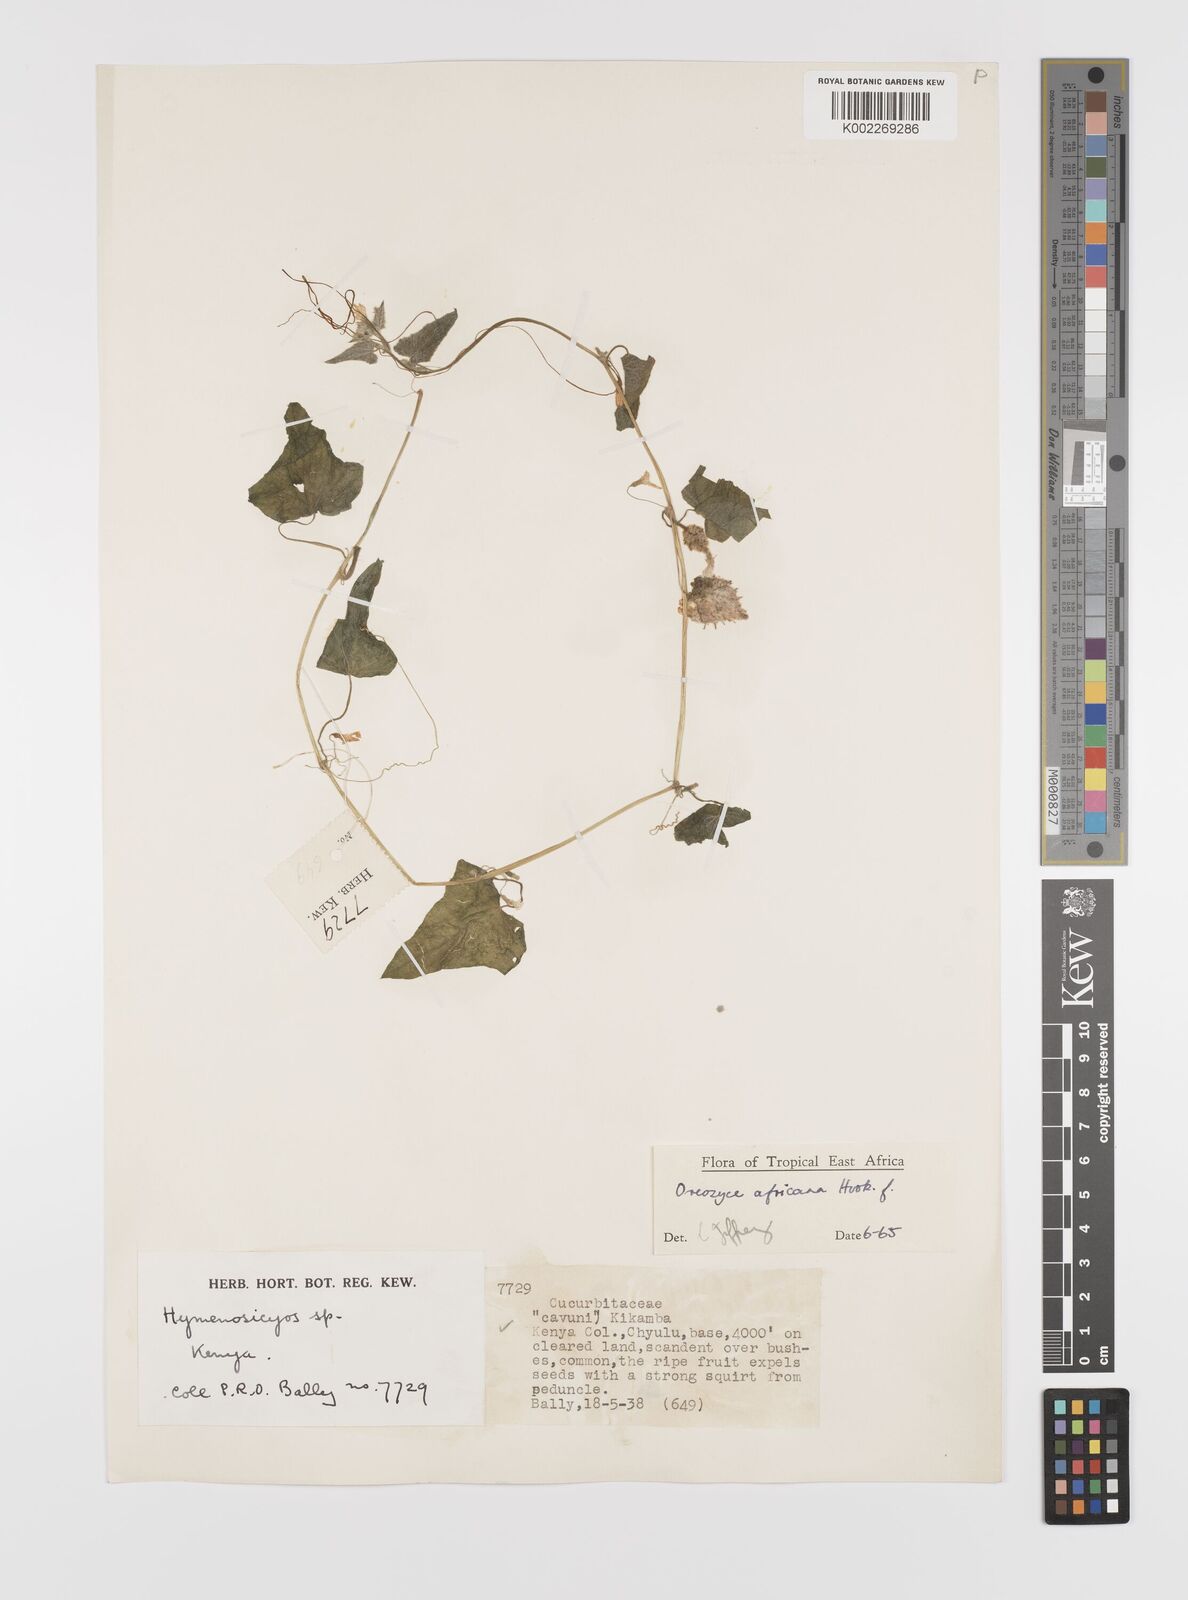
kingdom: Plantae
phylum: Tracheophyta
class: Magnoliopsida
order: Cucurbitales
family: Cucurbitaceae
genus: Cucumis
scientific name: Cucumis oreosyce
